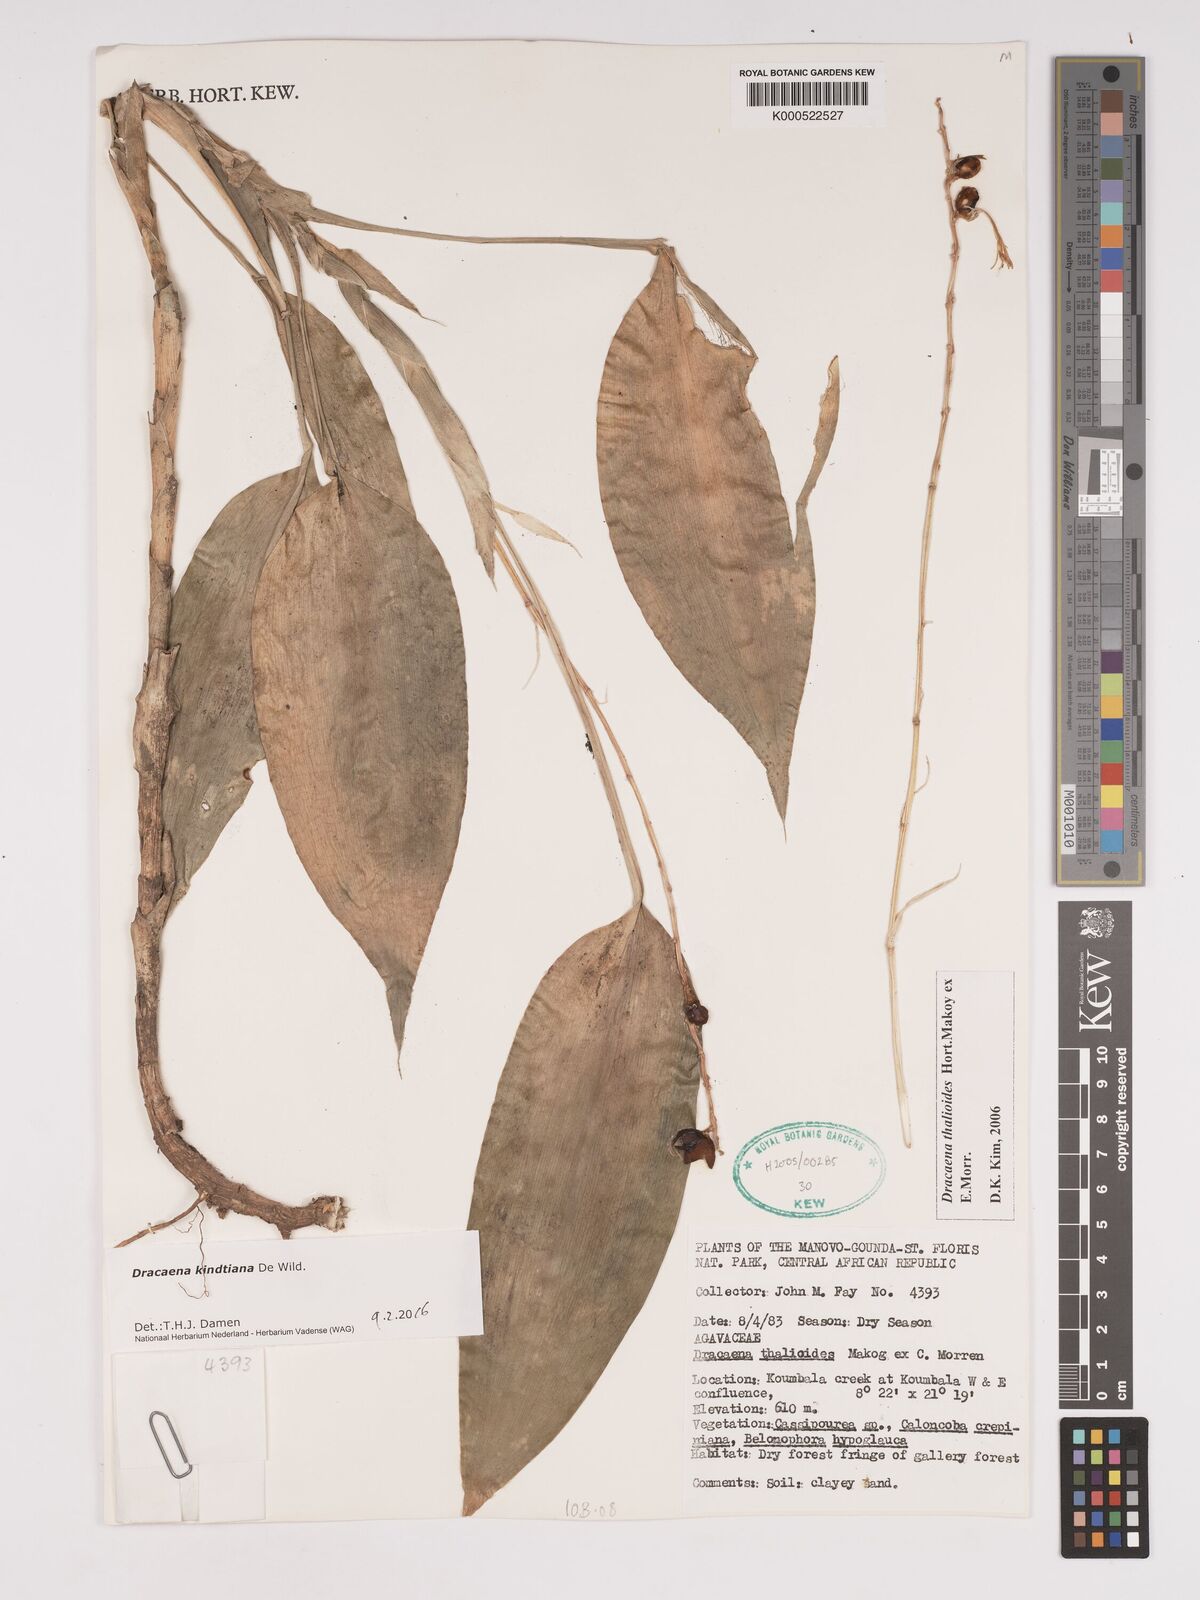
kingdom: Plantae
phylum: Tracheophyta
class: Liliopsida
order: Asparagales
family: Asparagaceae
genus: Dracaena
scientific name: Dracaena kindtiana
